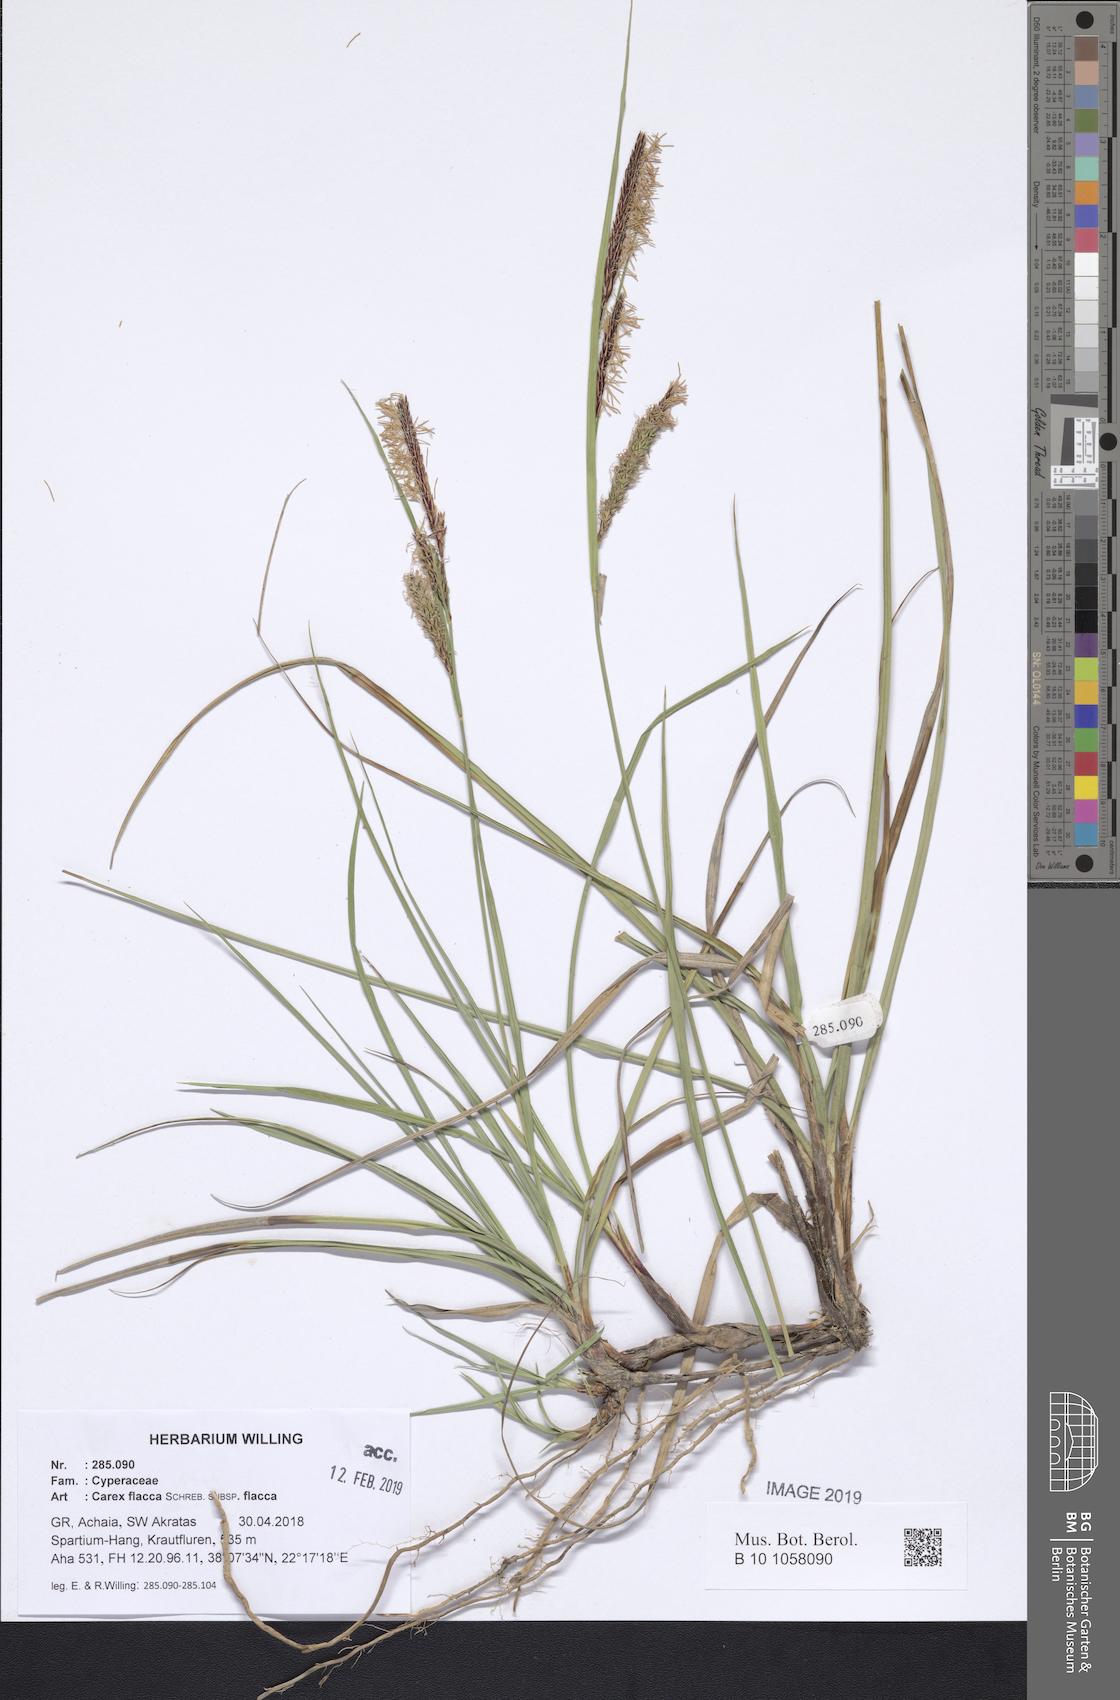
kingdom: Plantae
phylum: Tracheophyta
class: Liliopsida
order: Poales
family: Cyperaceae
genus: Carex
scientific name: Carex flacca
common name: Glaucous sedge
